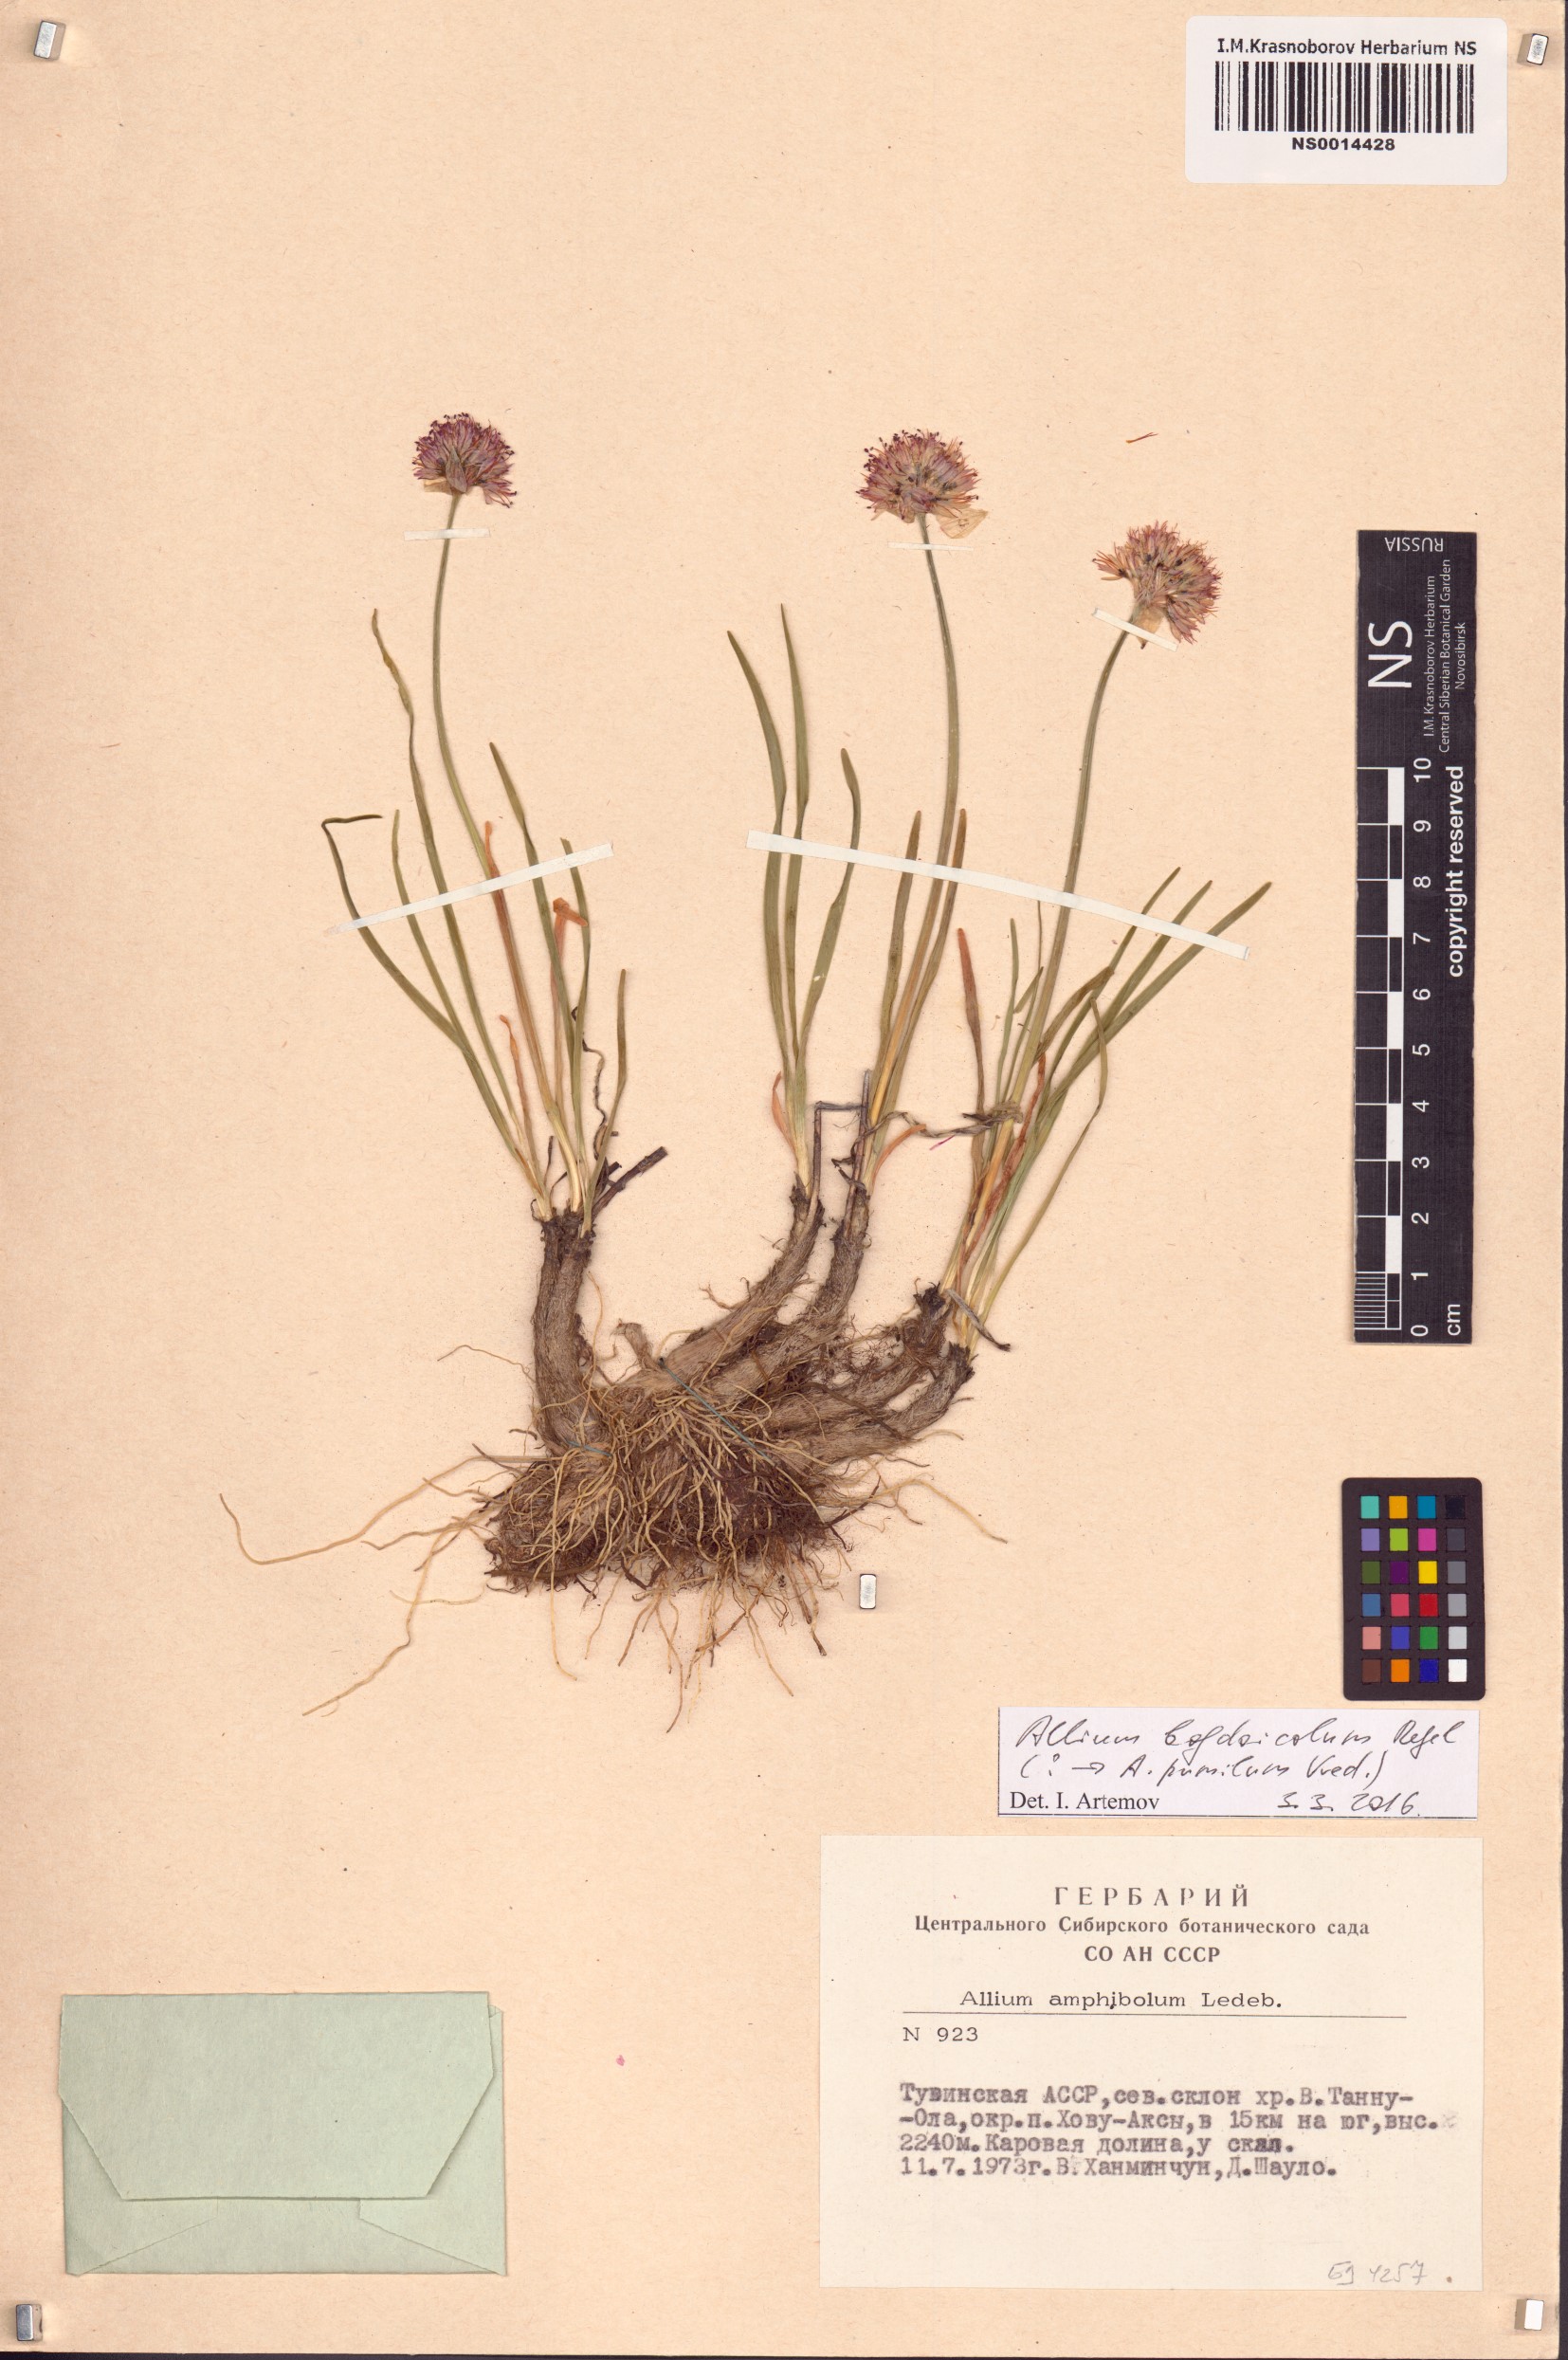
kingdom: Plantae
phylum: Tracheophyta
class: Liliopsida
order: Asparagales
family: Amaryllidaceae
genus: Allium
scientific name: Allium pumilum
